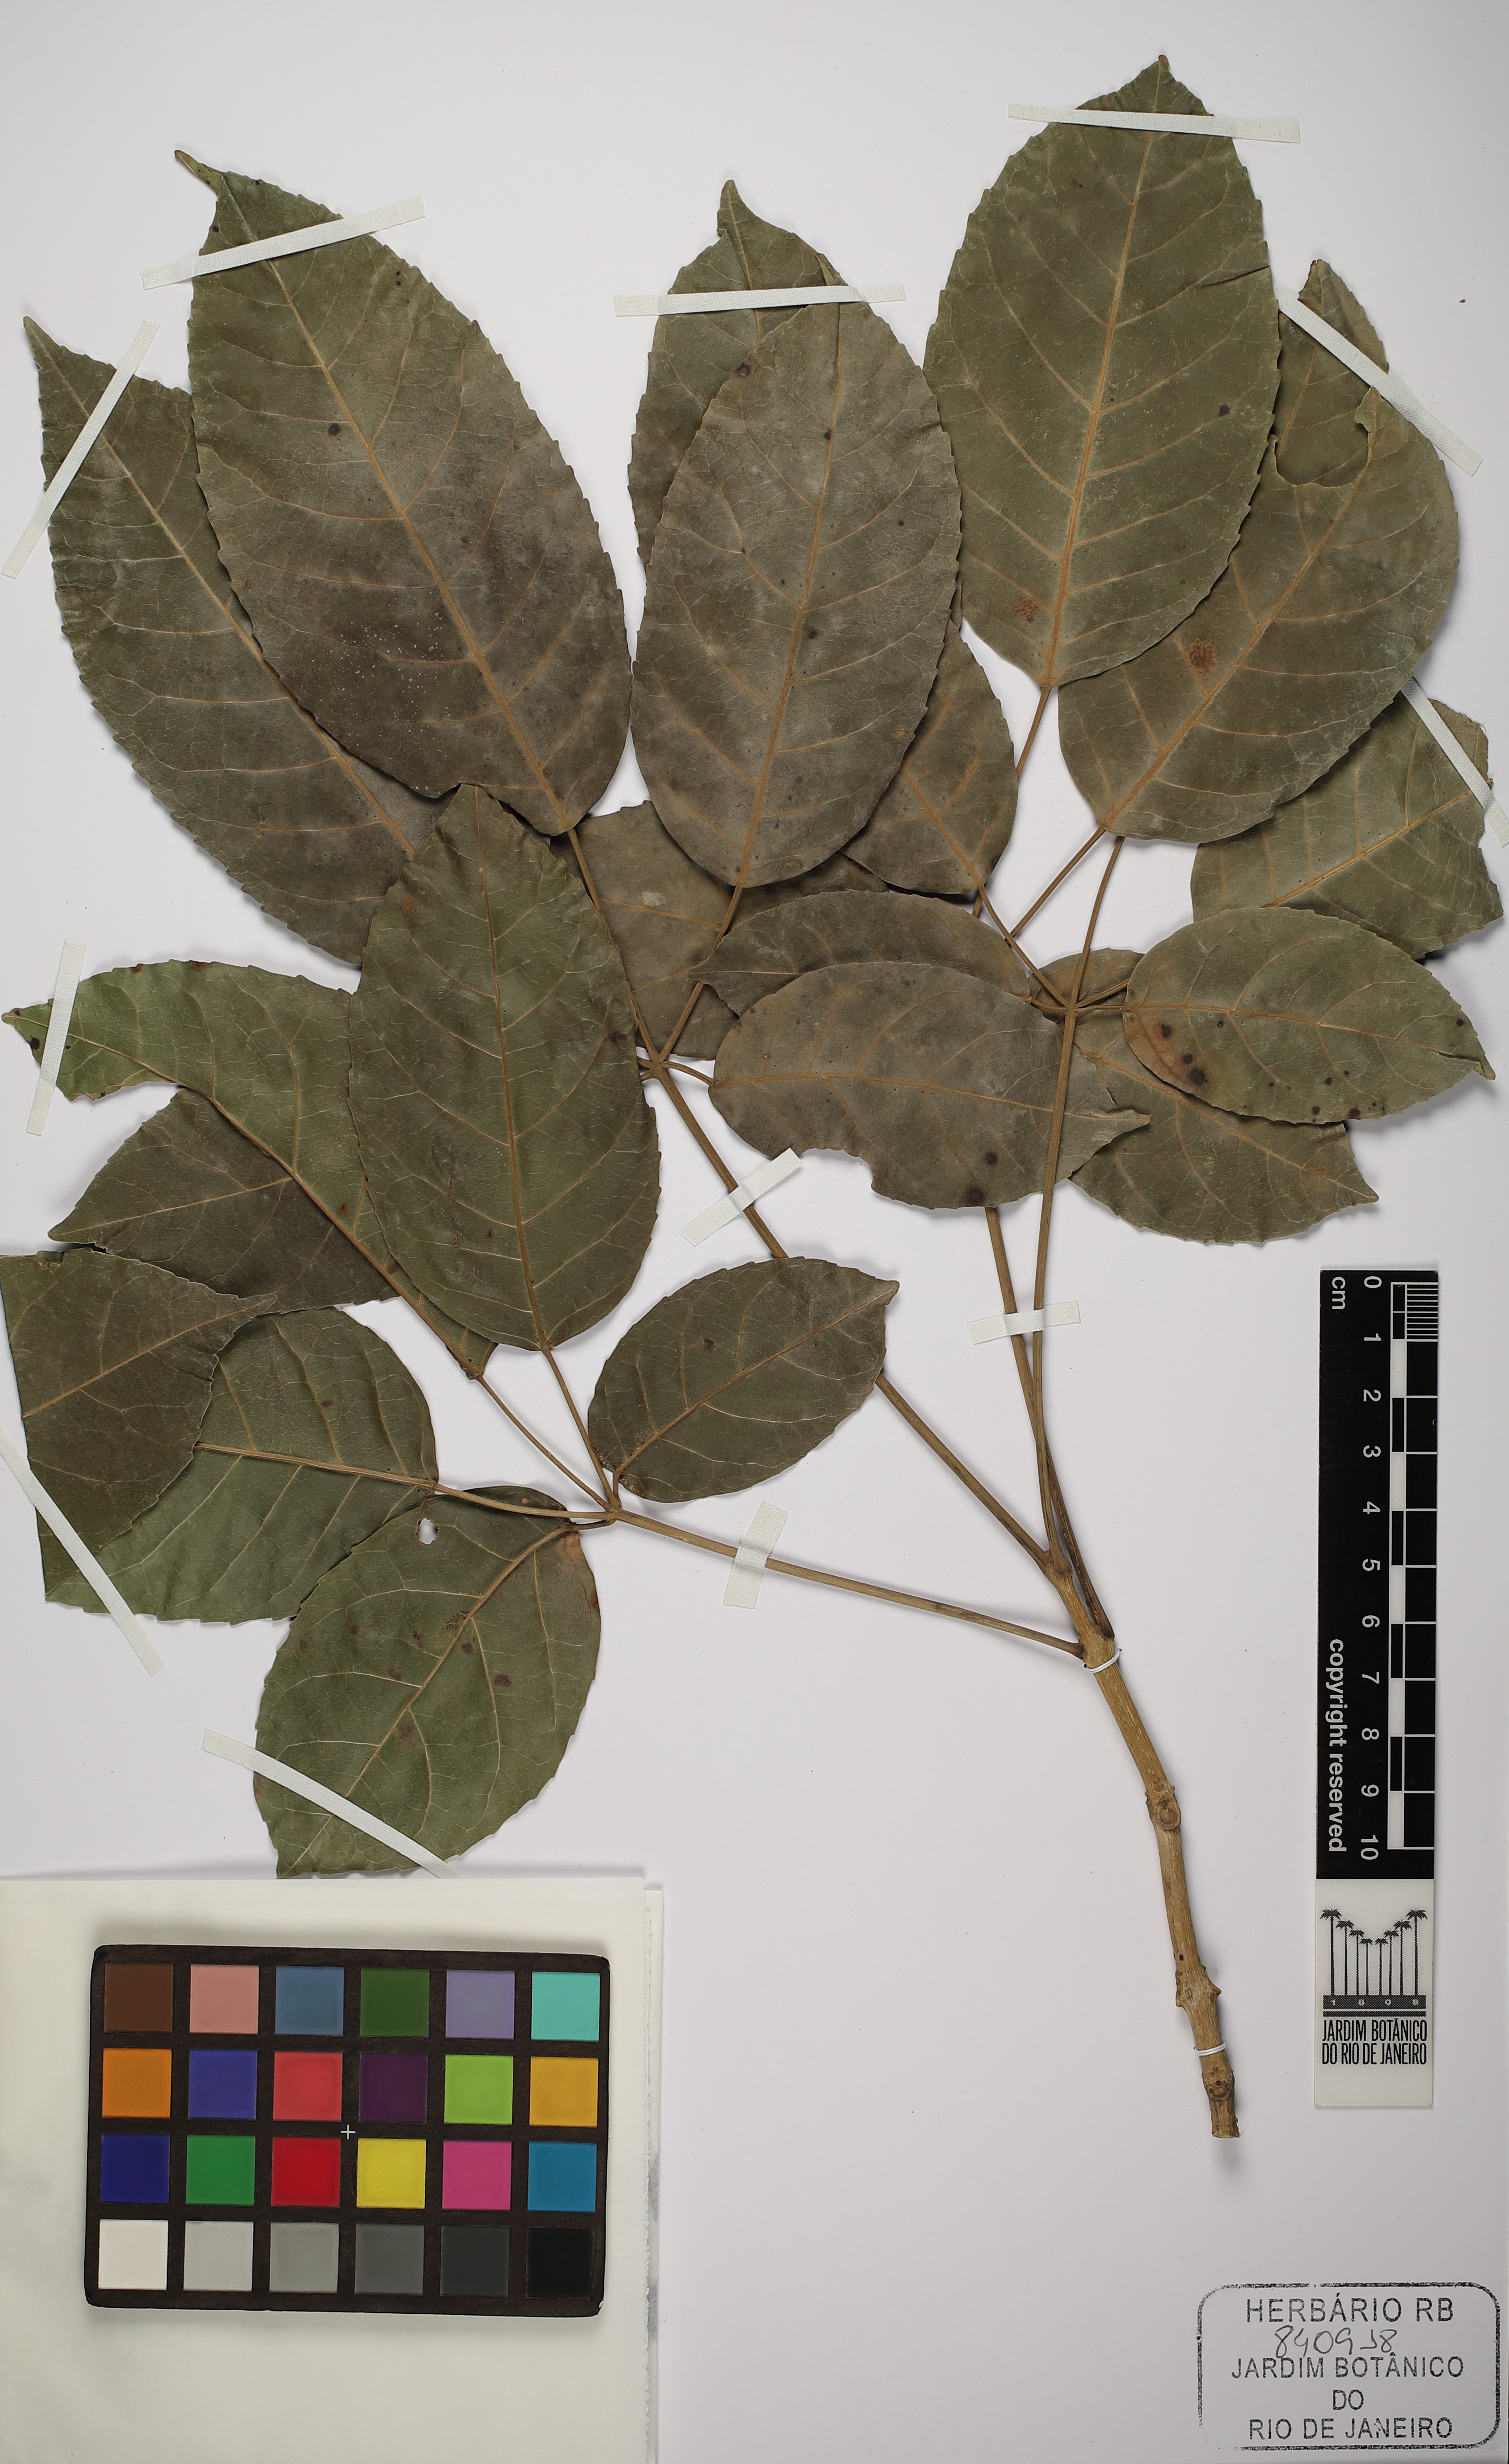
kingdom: Plantae
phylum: Tracheophyta
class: Magnoliopsida
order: Lamiales
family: Bignoniaceae
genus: Handroanthus
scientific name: Handroanthus impetiginosum
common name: Pink trumpet tree
